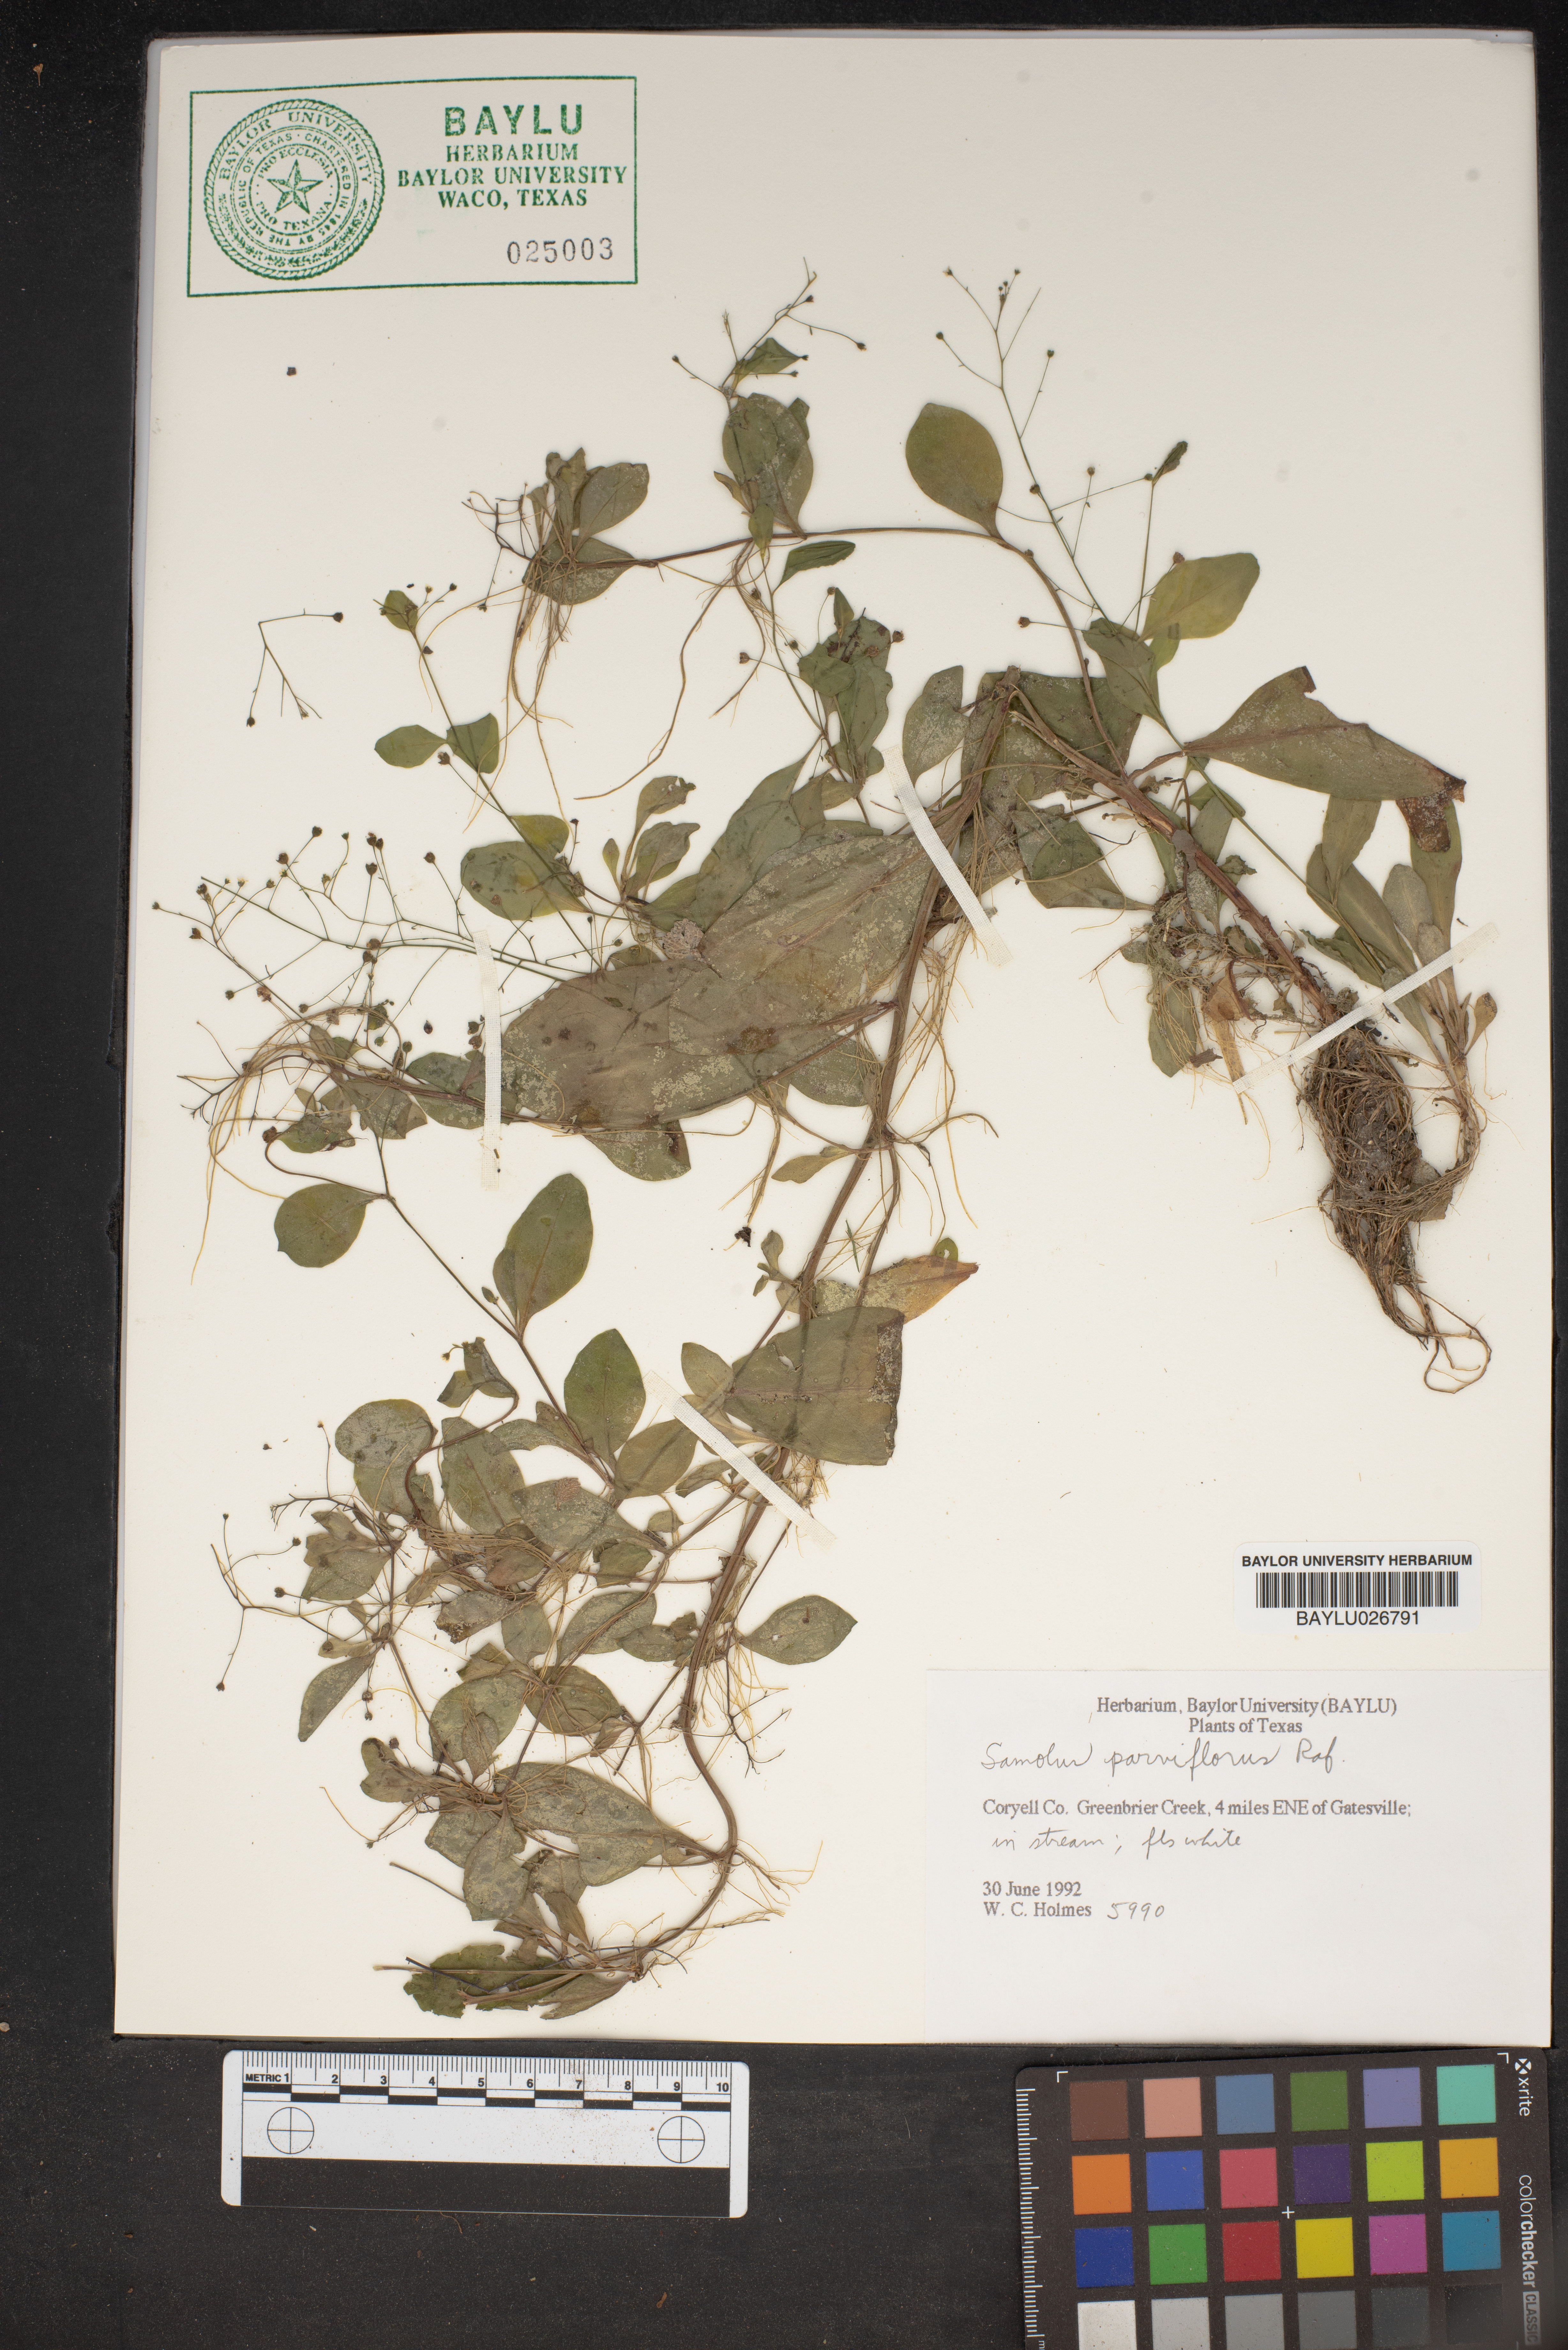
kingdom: Plantae
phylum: Tracheophyta
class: Magnoliopsida
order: Ericales
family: Primulaceae
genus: Samolus
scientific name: Samolus parviflorus
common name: False water pimpernel
